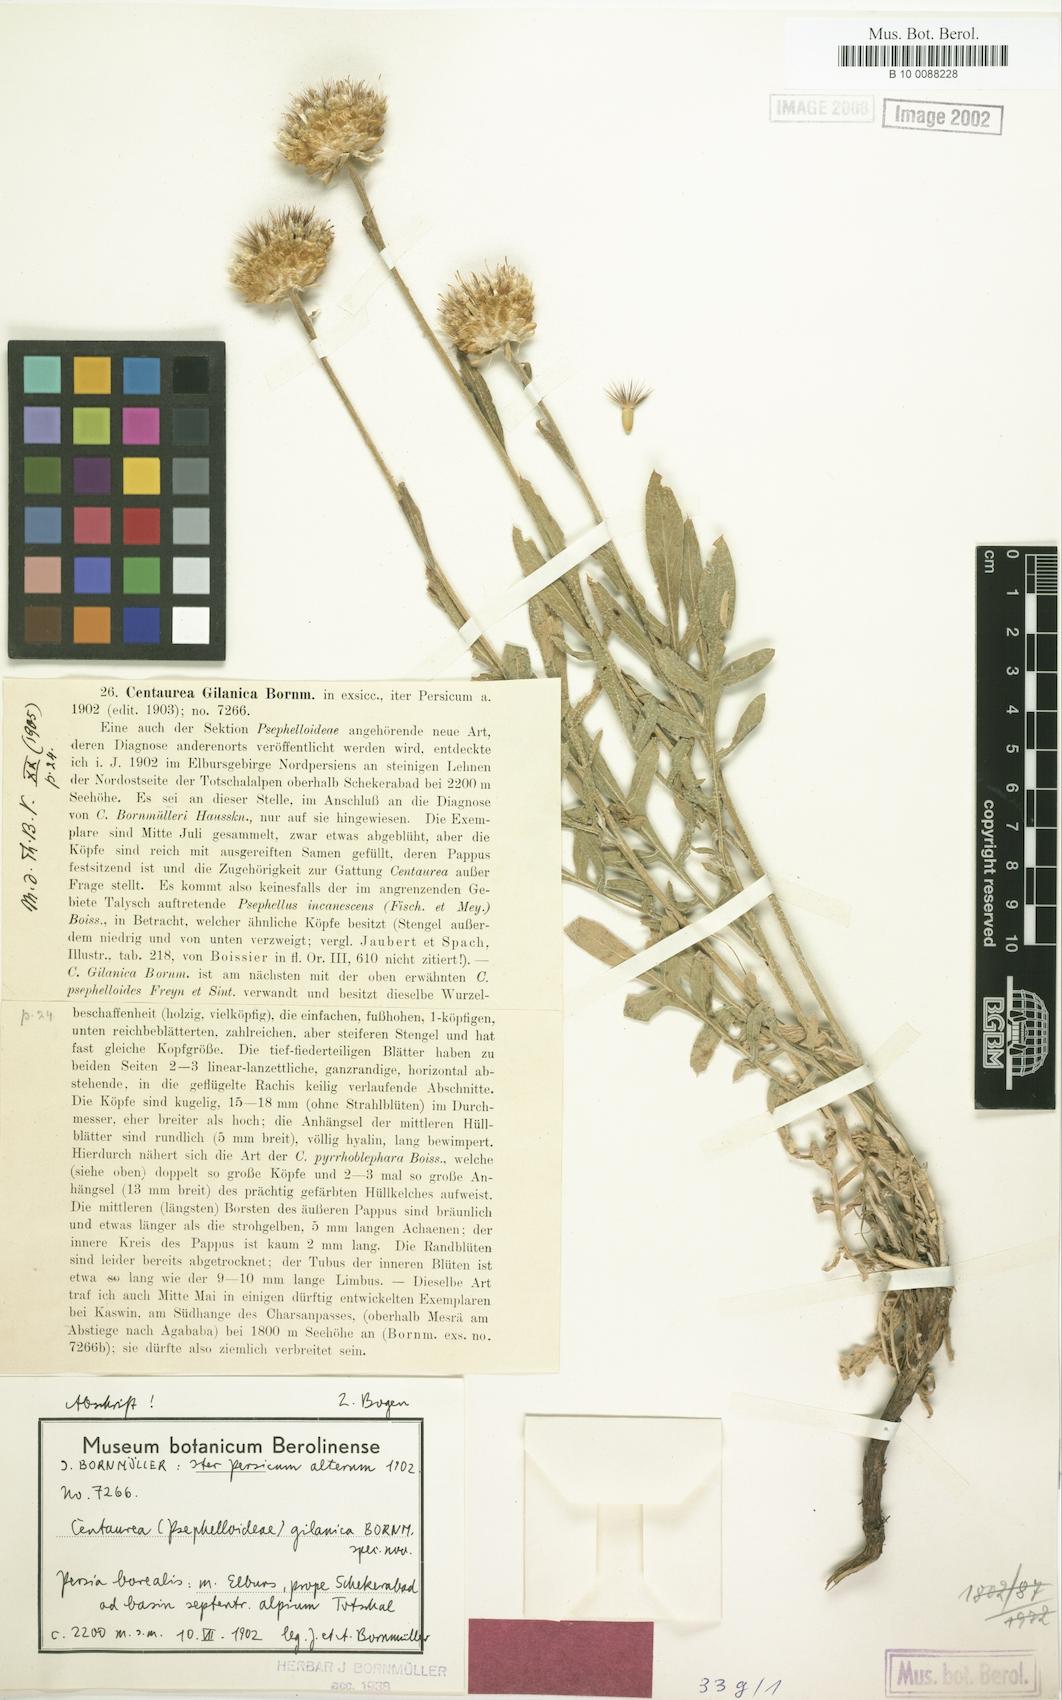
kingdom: Plantae
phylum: Tracheophyta
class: Magnoliopsida
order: Asterales
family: Asteraceae
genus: Psephellus
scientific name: Psephellus gilanicus
